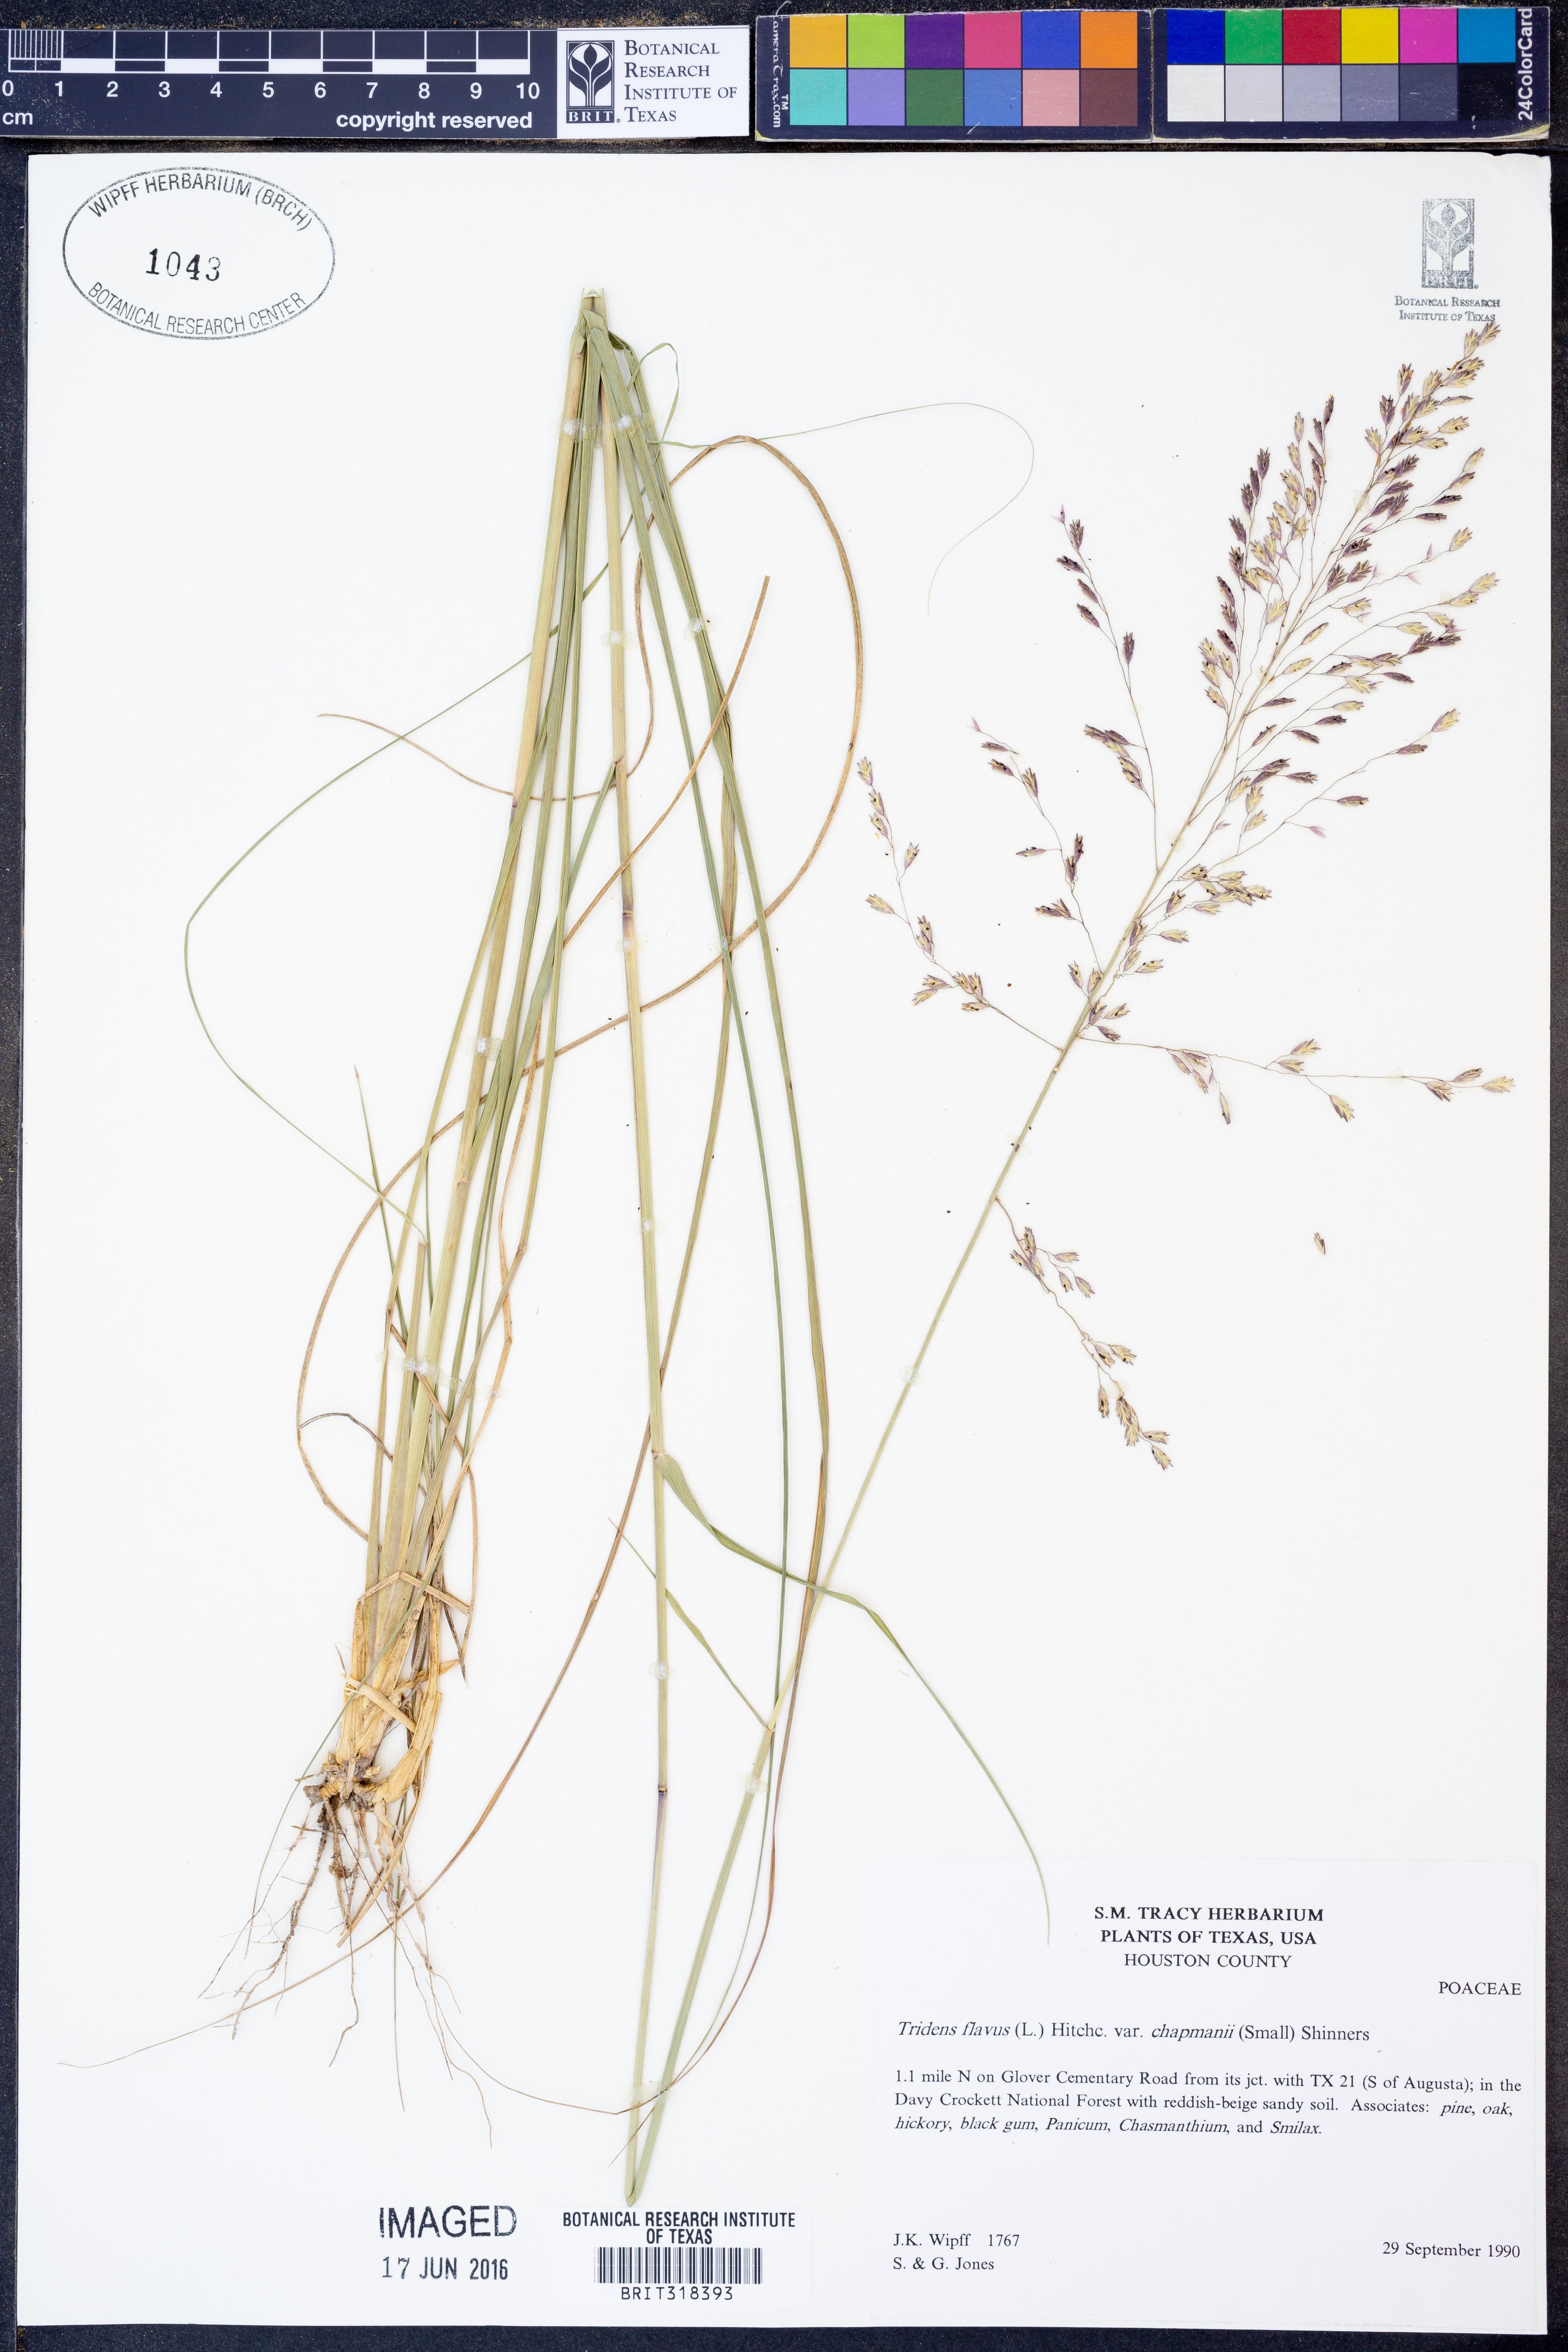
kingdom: Plantae
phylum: Tracheophyta
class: Liliopsida
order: Poales
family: Poaceae
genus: Tridens
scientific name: Tridens chapmanii
